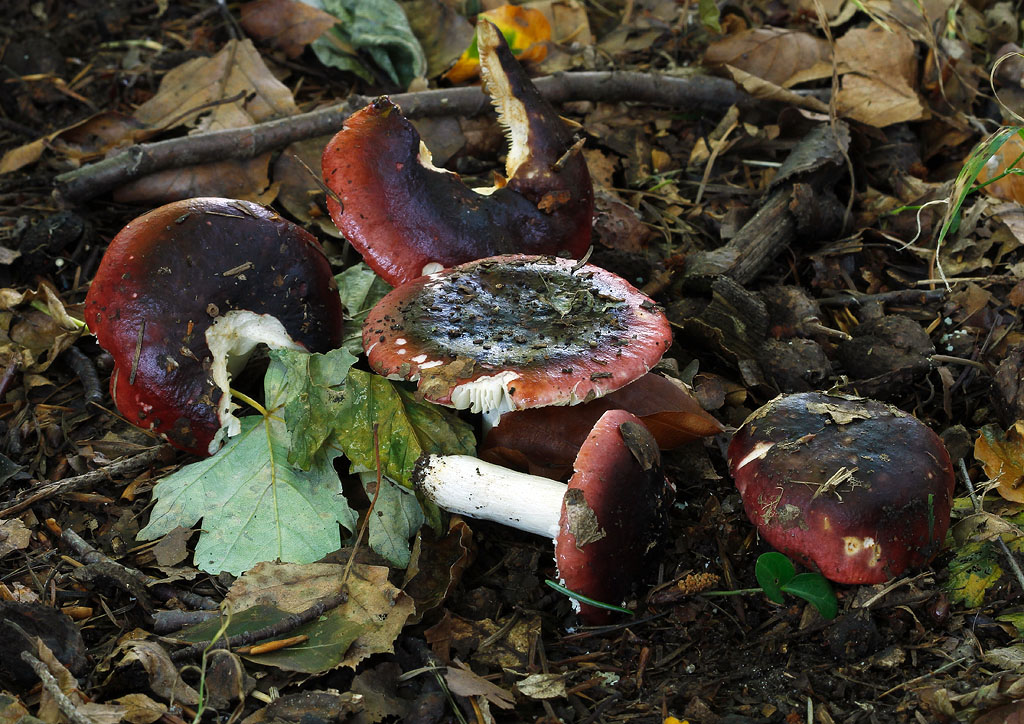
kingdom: Fungi
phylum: Basidiomycota
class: Agaricomycetes
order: Russulales
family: Russulaceae
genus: Russula
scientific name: Russula atropurpurea
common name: purpurbroget skørhat
